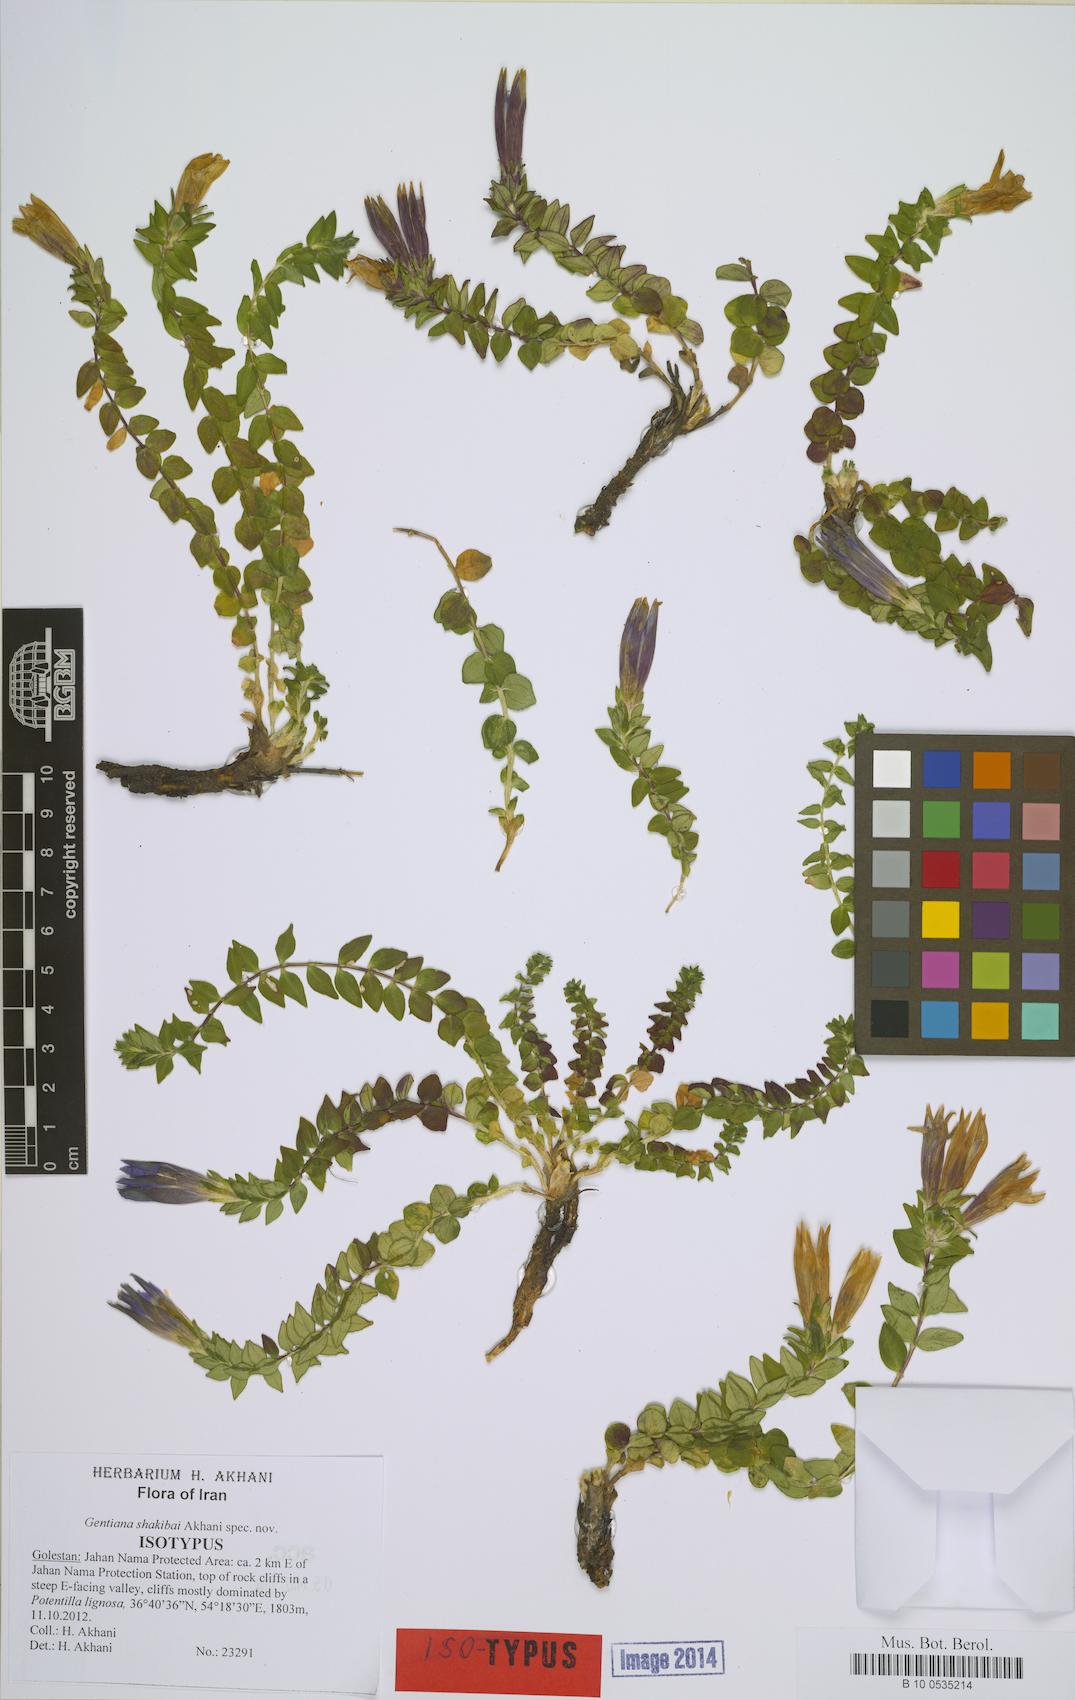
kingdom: Plantae
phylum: Tracheophyta
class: Magnoliopsida
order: Gentianales
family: Gentianaceae
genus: Gentiana
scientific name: Gentiana
